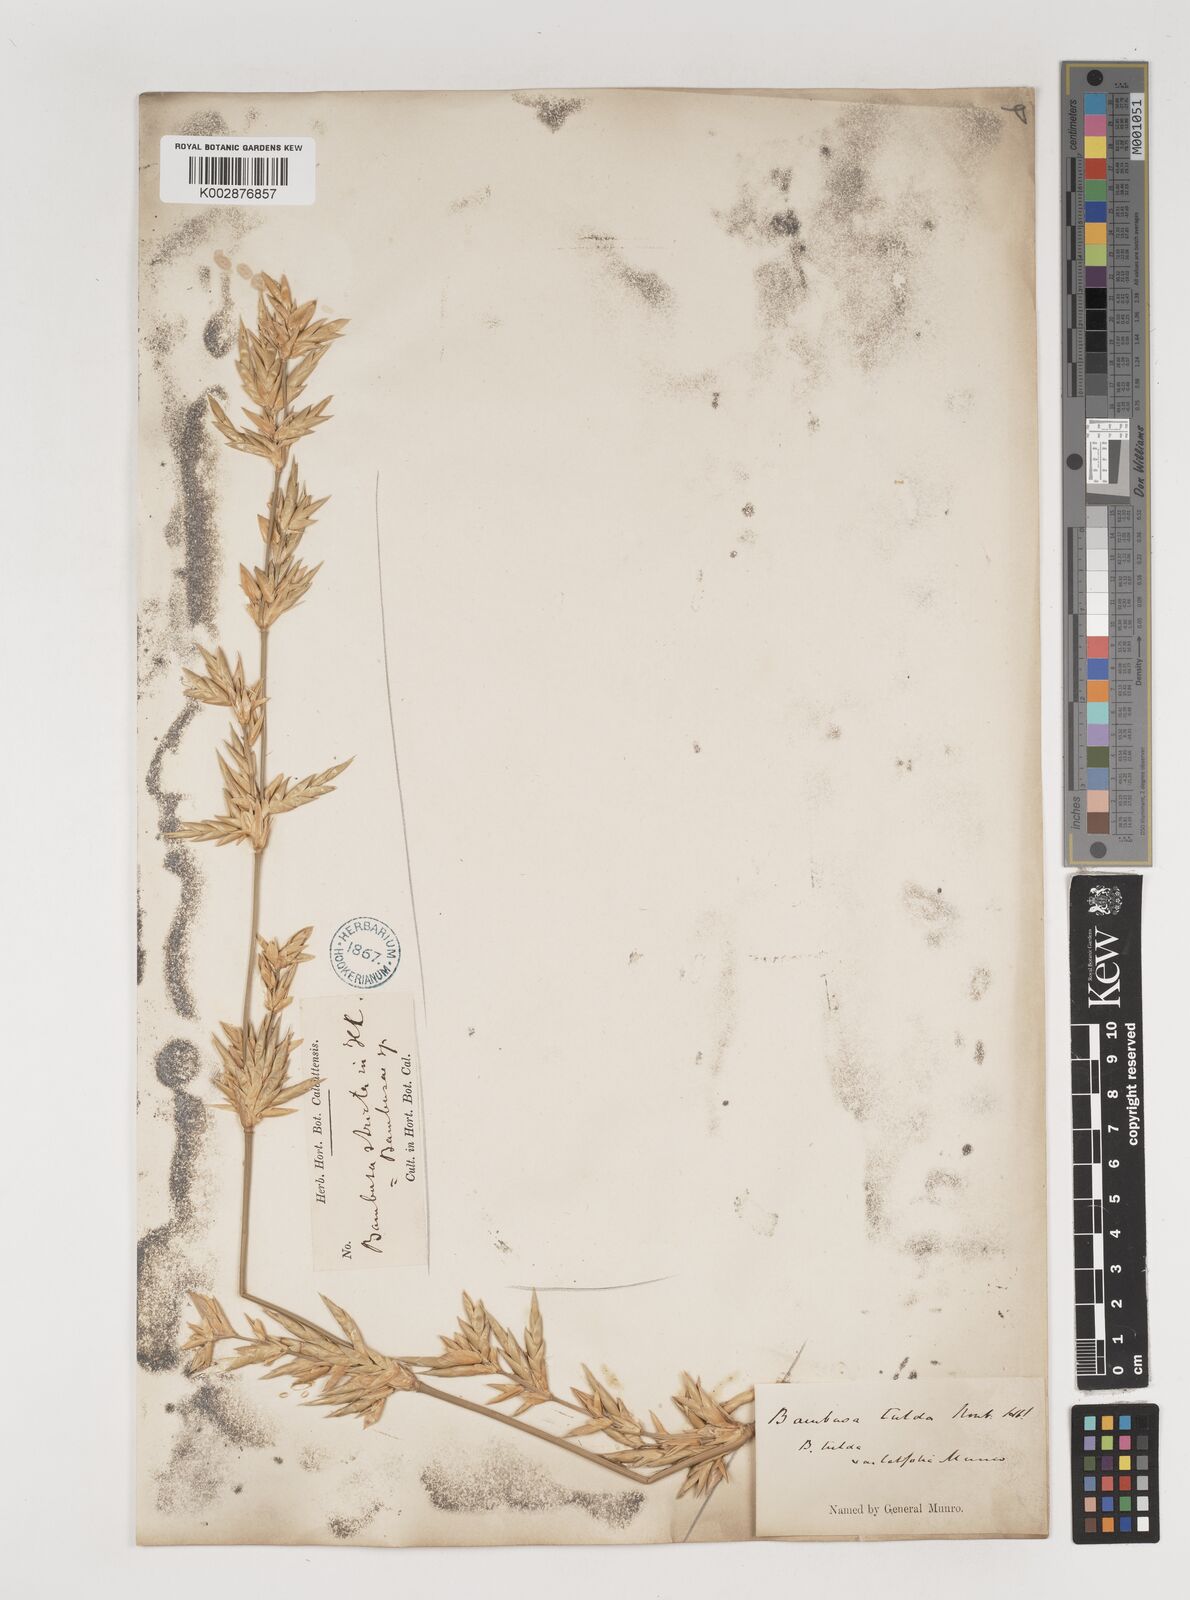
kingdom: Plantae
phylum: Tracheophyta
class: Liliopsida
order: Poales
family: Poaceae
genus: Bambusa
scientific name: Bambusa tulda
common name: Bengal bamboo
